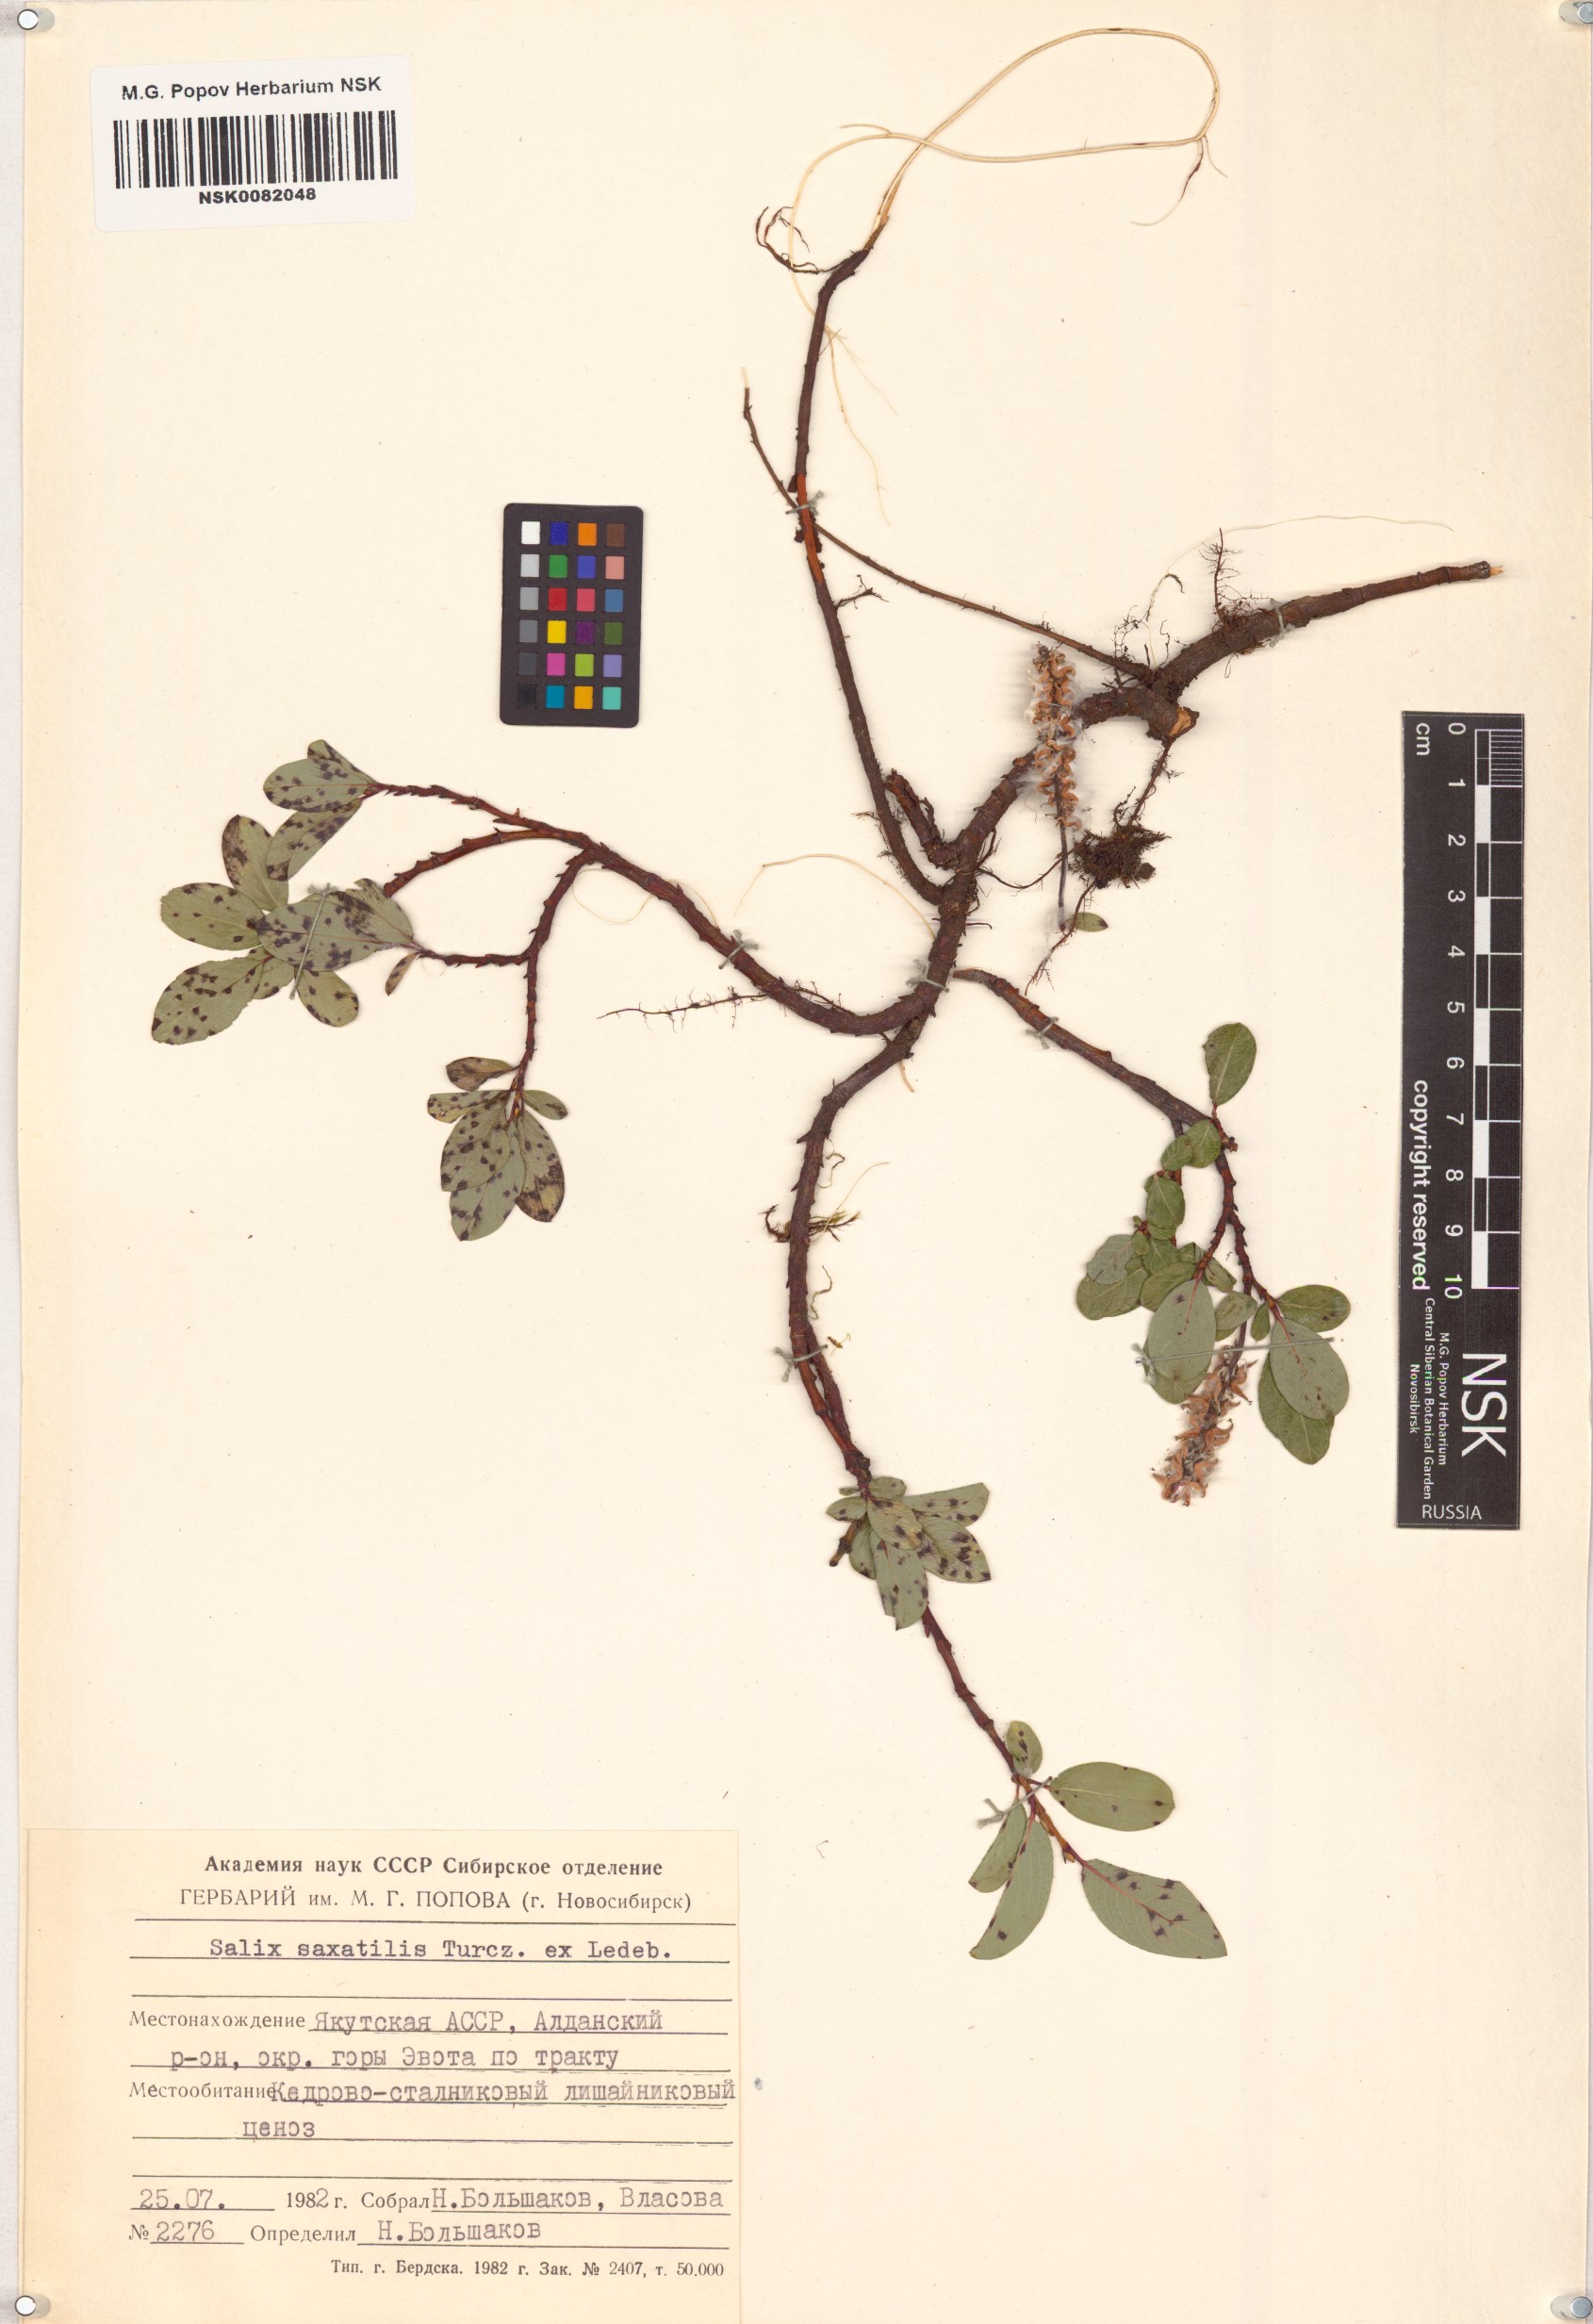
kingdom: Plantae
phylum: Tracheophyta
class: Magnoliopsida
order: Malpighiales
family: Salicaceae
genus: Salix
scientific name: Salix saxatilis
